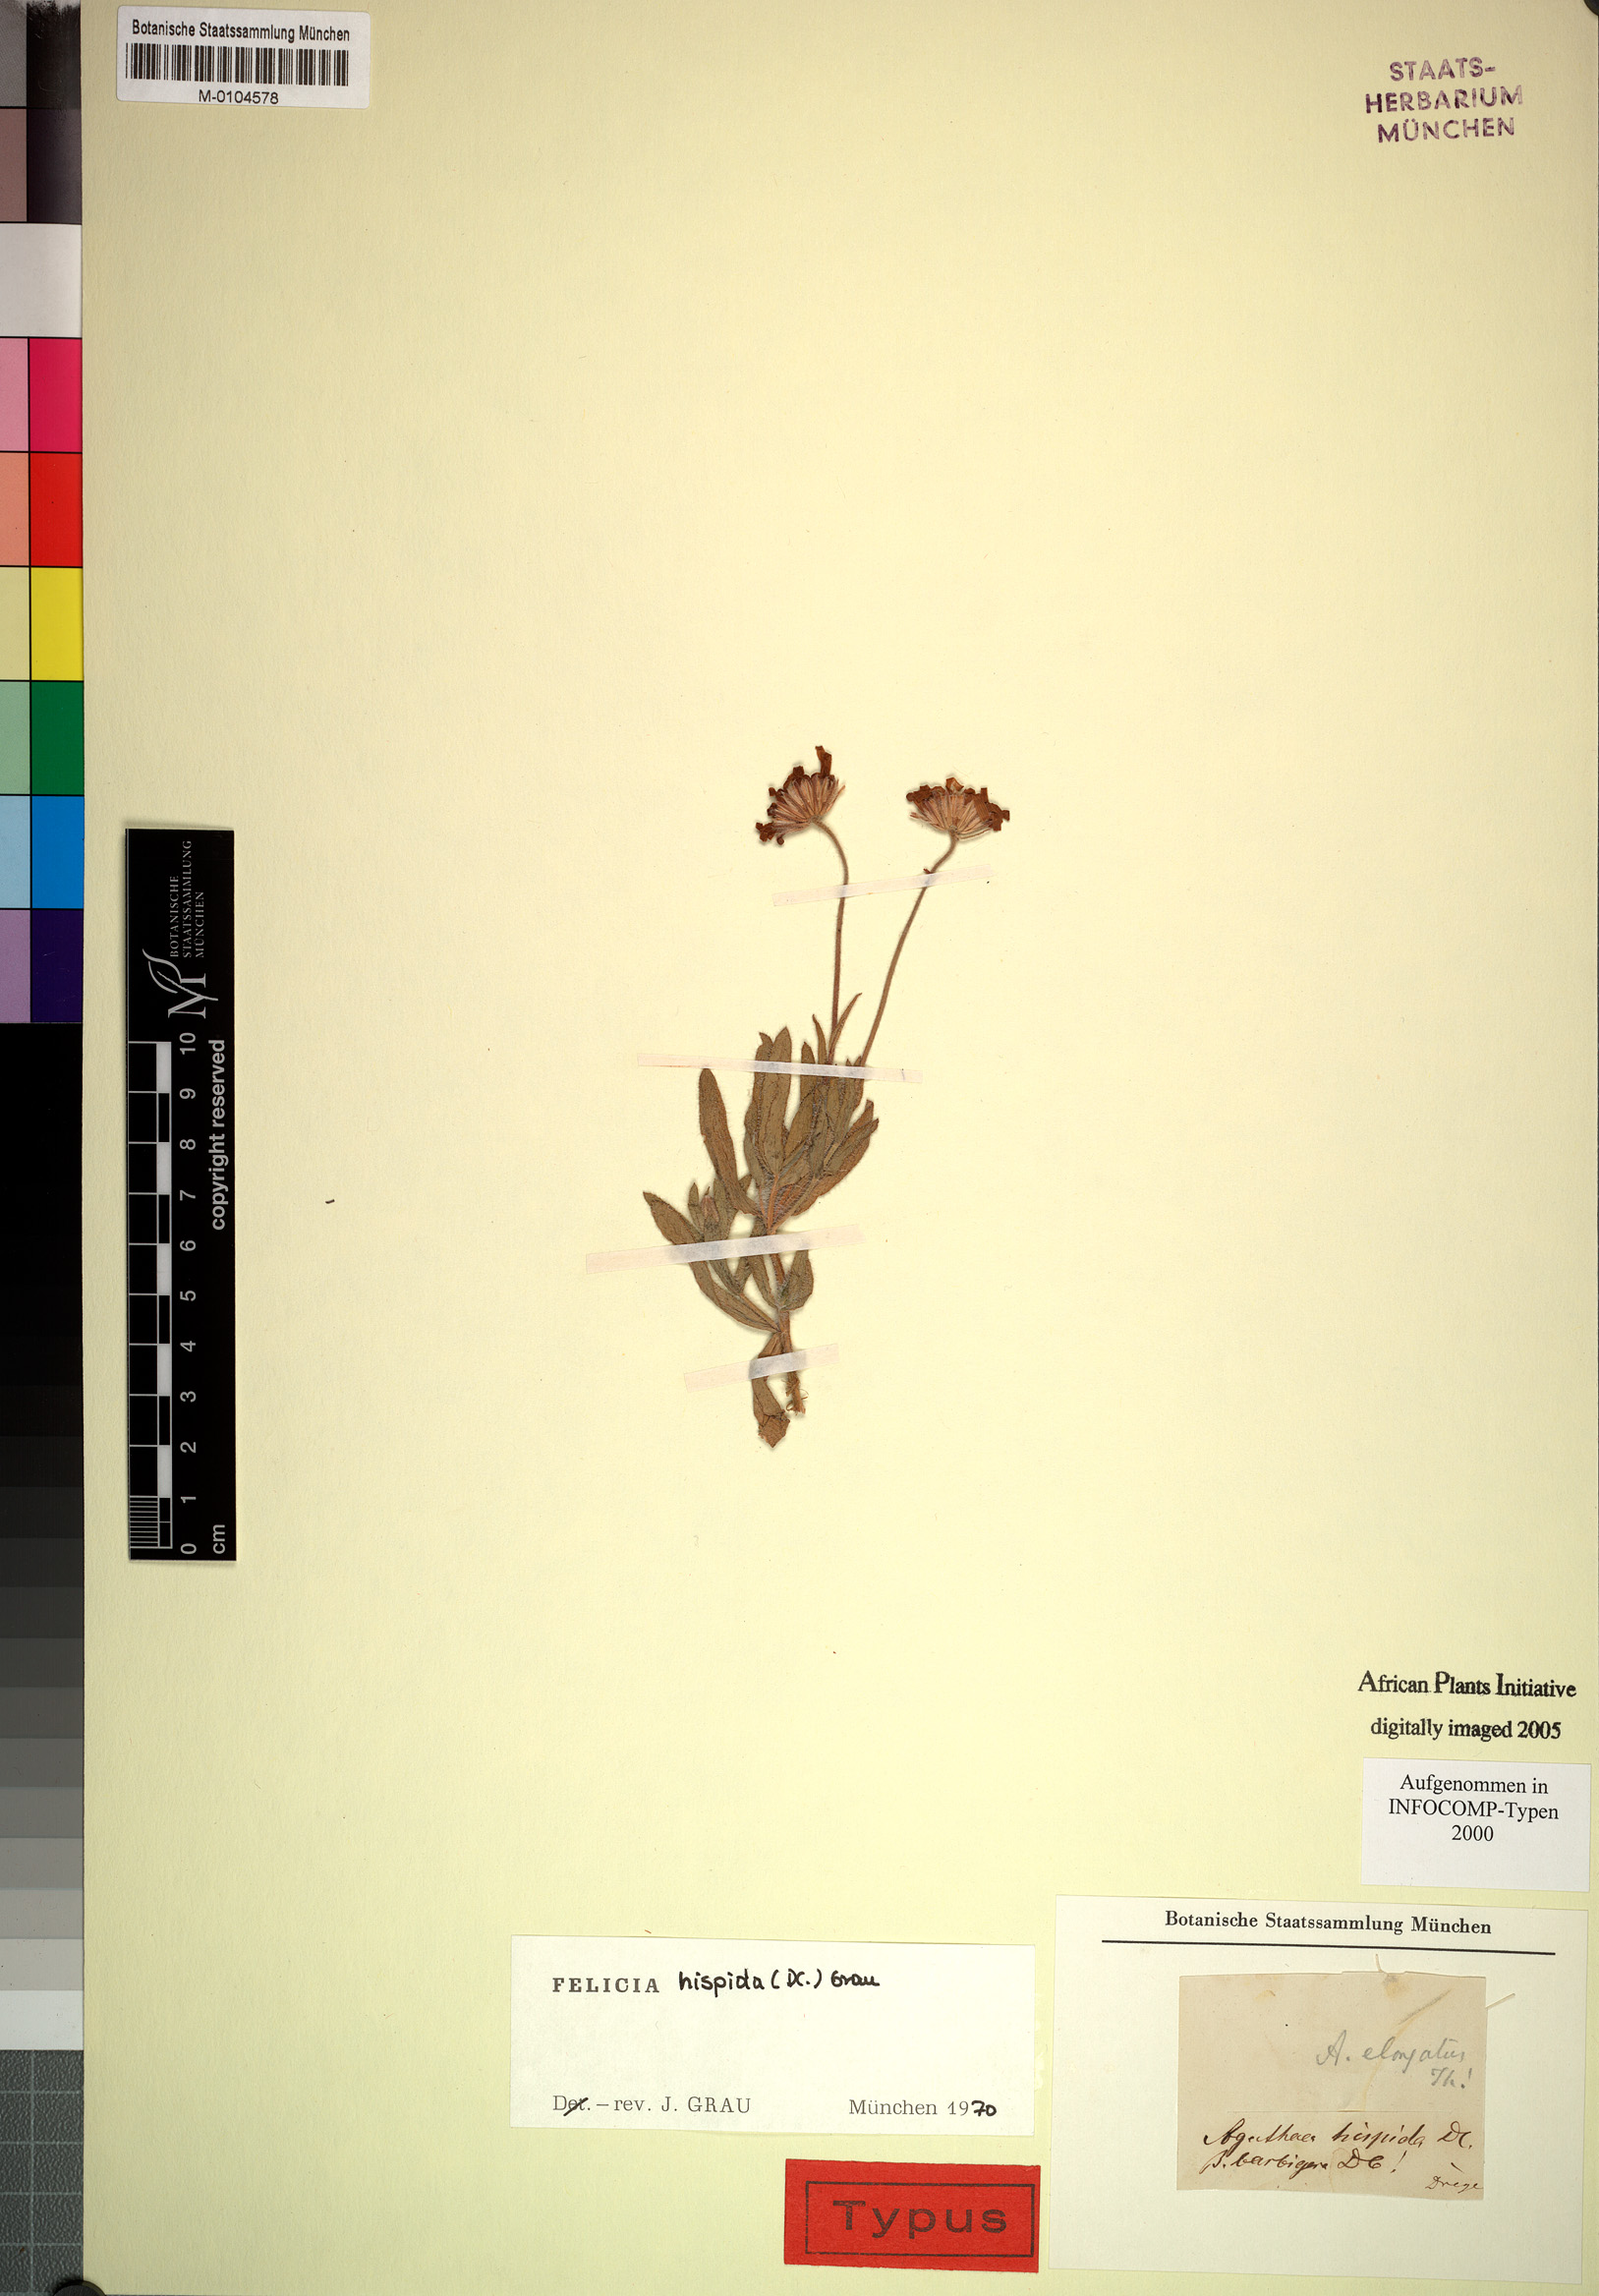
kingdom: Plantae
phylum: Tracheophyta
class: Magnoliopsida
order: Asterales
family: Asteraceae
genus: Felicia
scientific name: Felicia hispida
